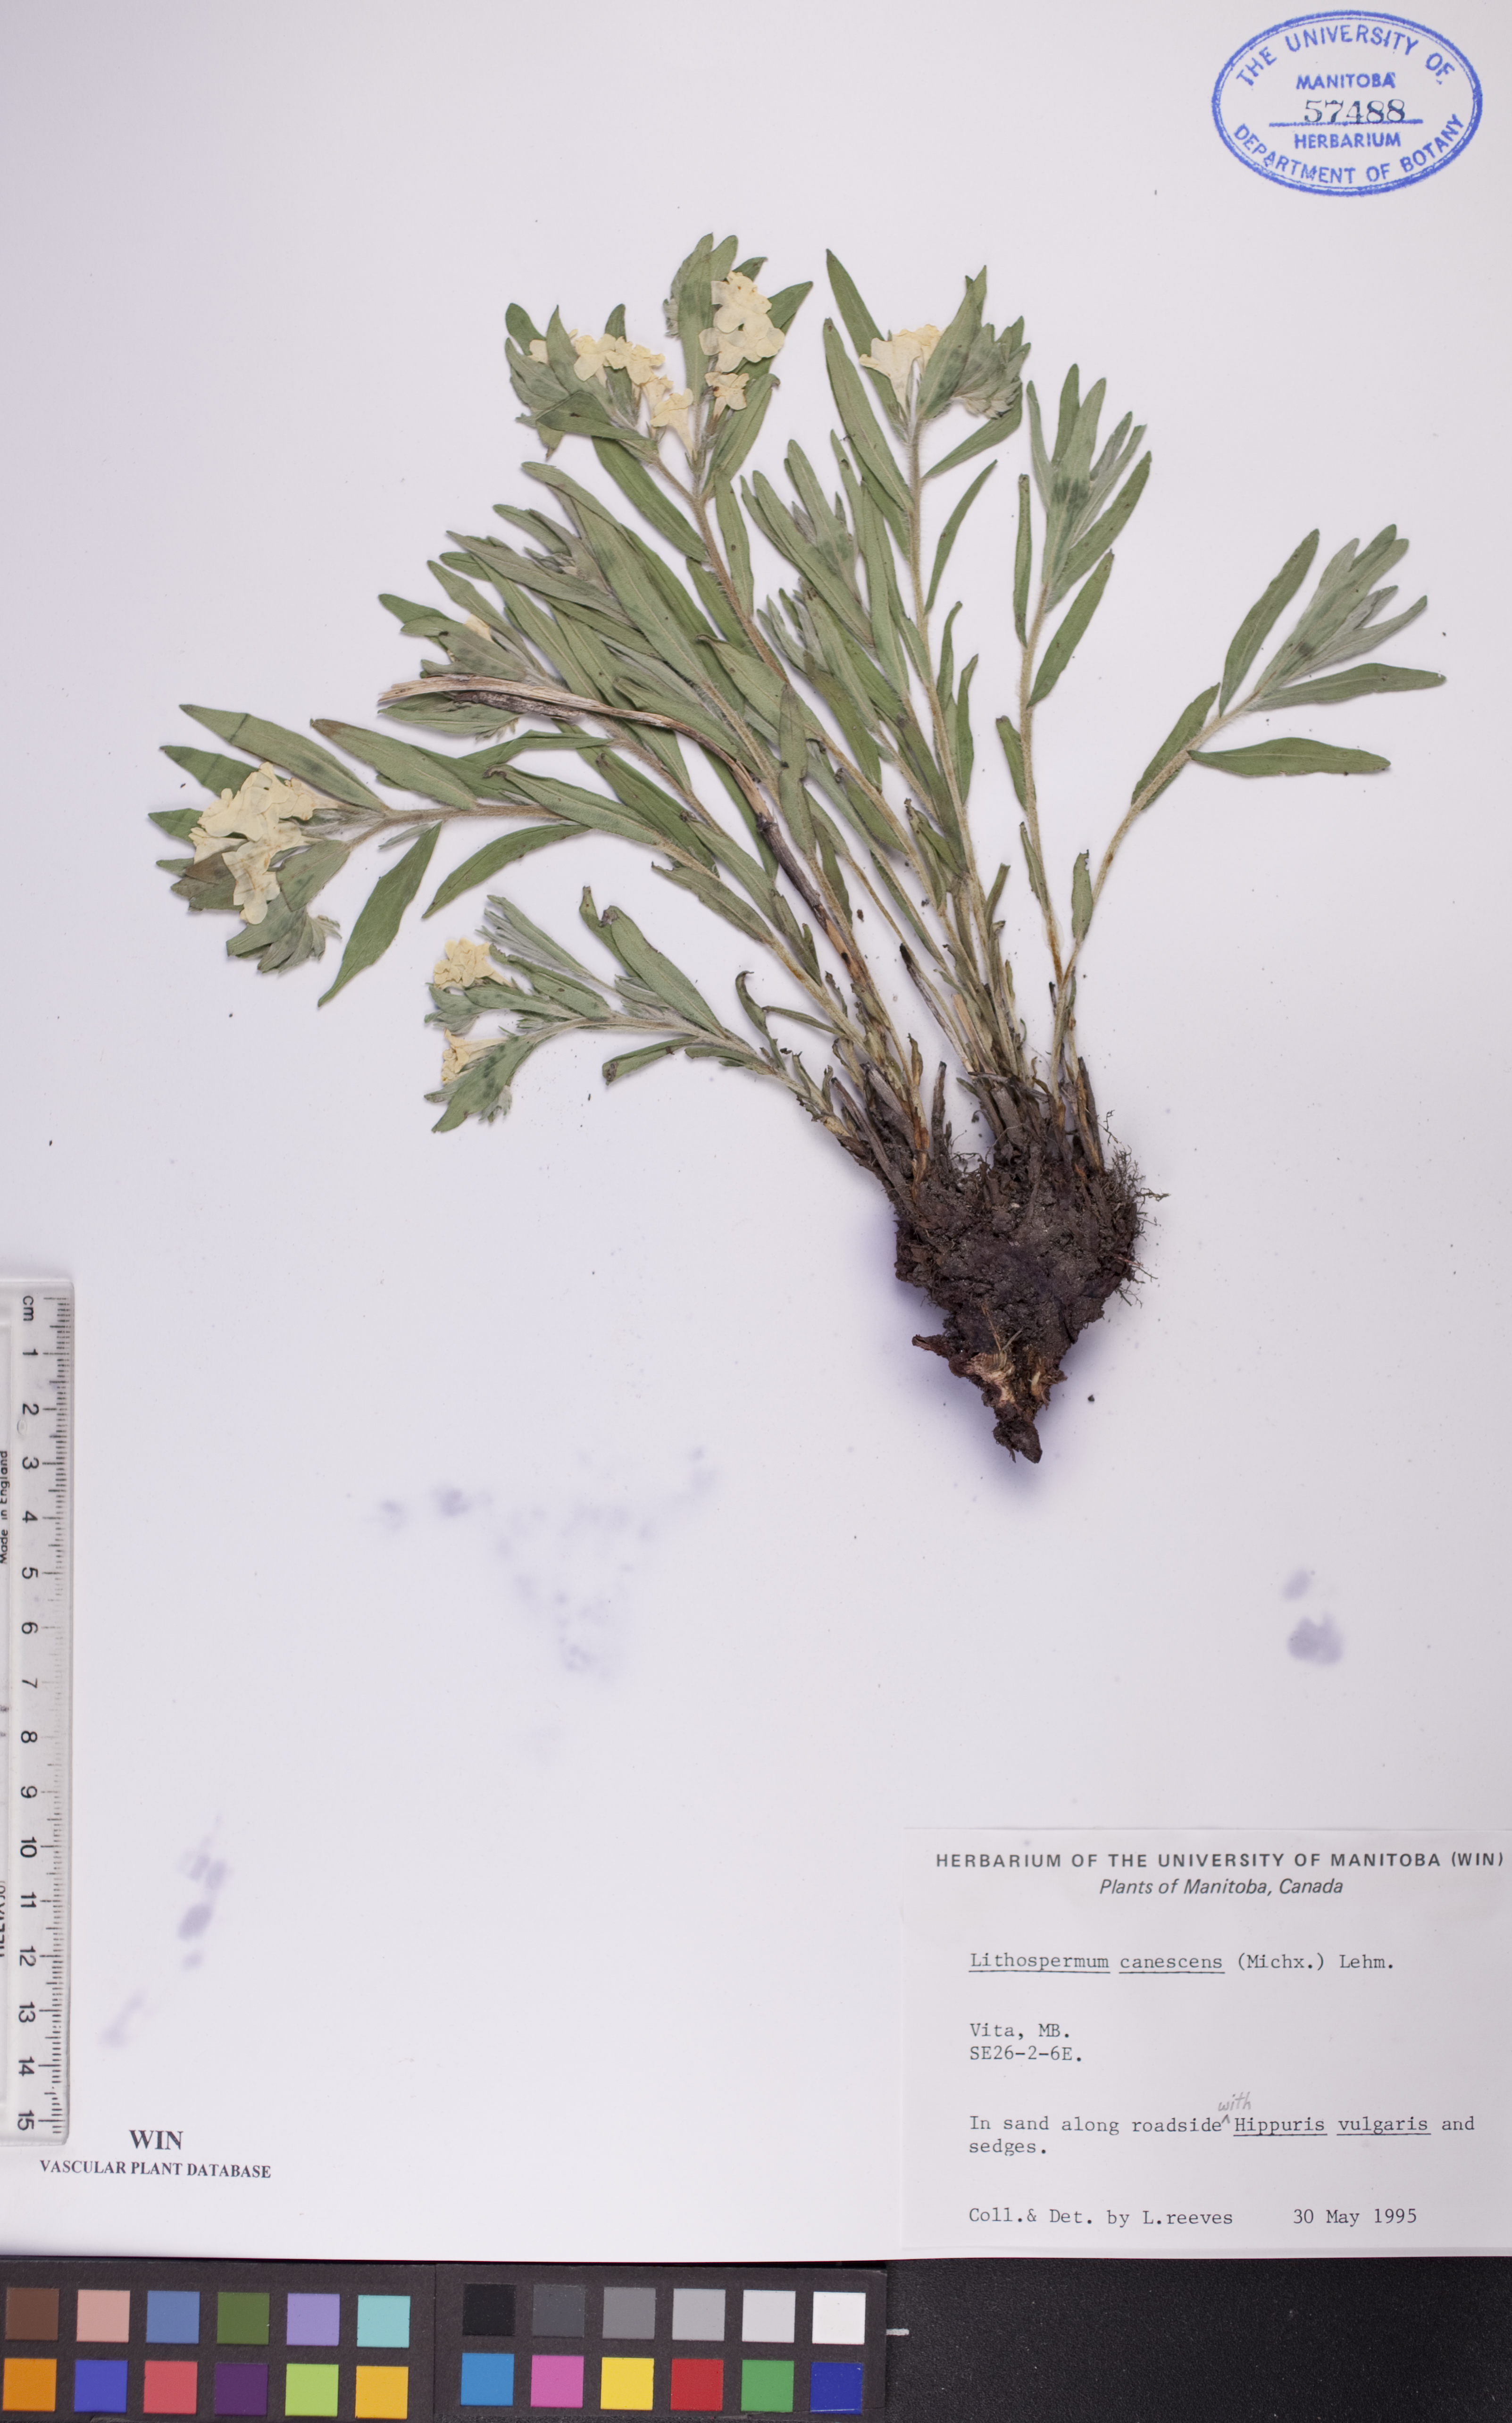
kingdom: Plantae
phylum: Tracheophyta
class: Magnoliopsida
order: Boraginales
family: Boraginaceae
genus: Lithospermum
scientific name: Lithospermum canescens
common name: Hoary puccoon
